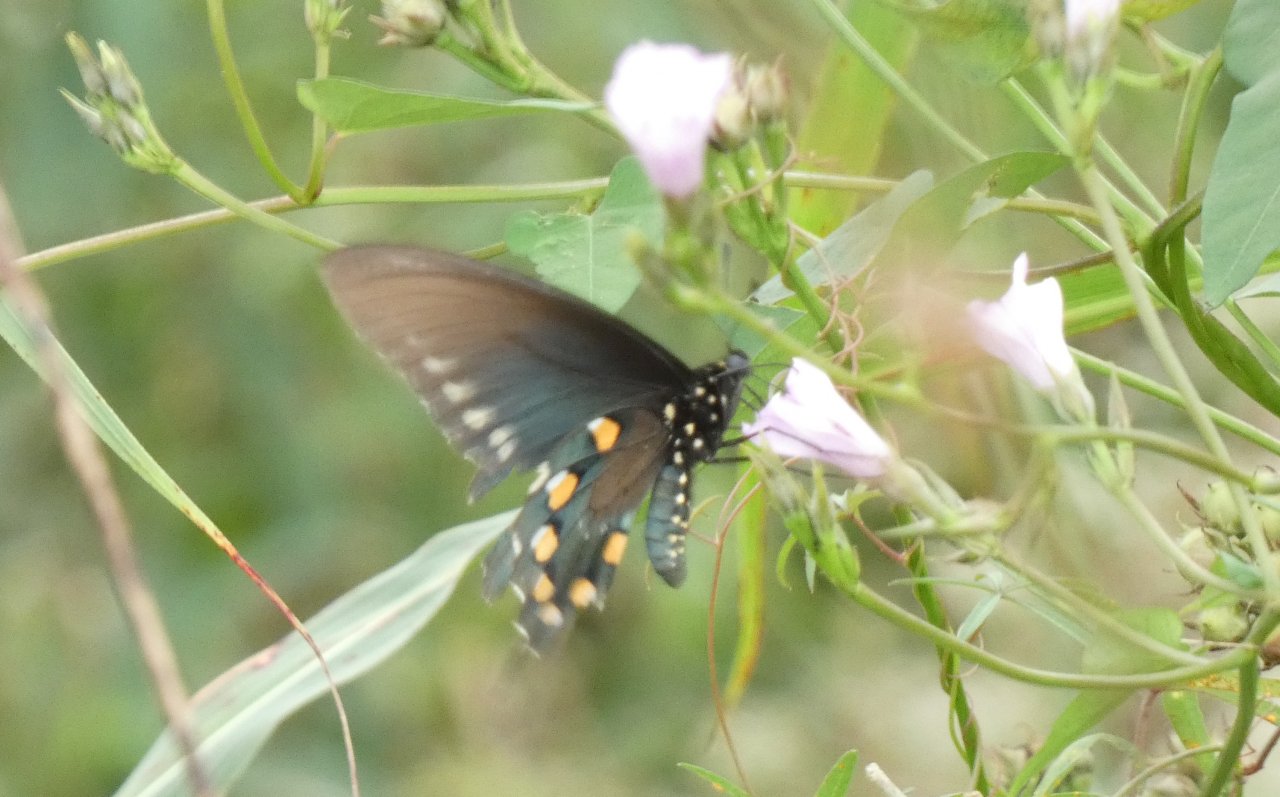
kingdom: Animalia
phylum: Arthropoda
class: Insecta
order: Lepidoptera
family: Papilionidae
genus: Battus
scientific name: Battus philenor
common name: Pipevine Swallowtail
